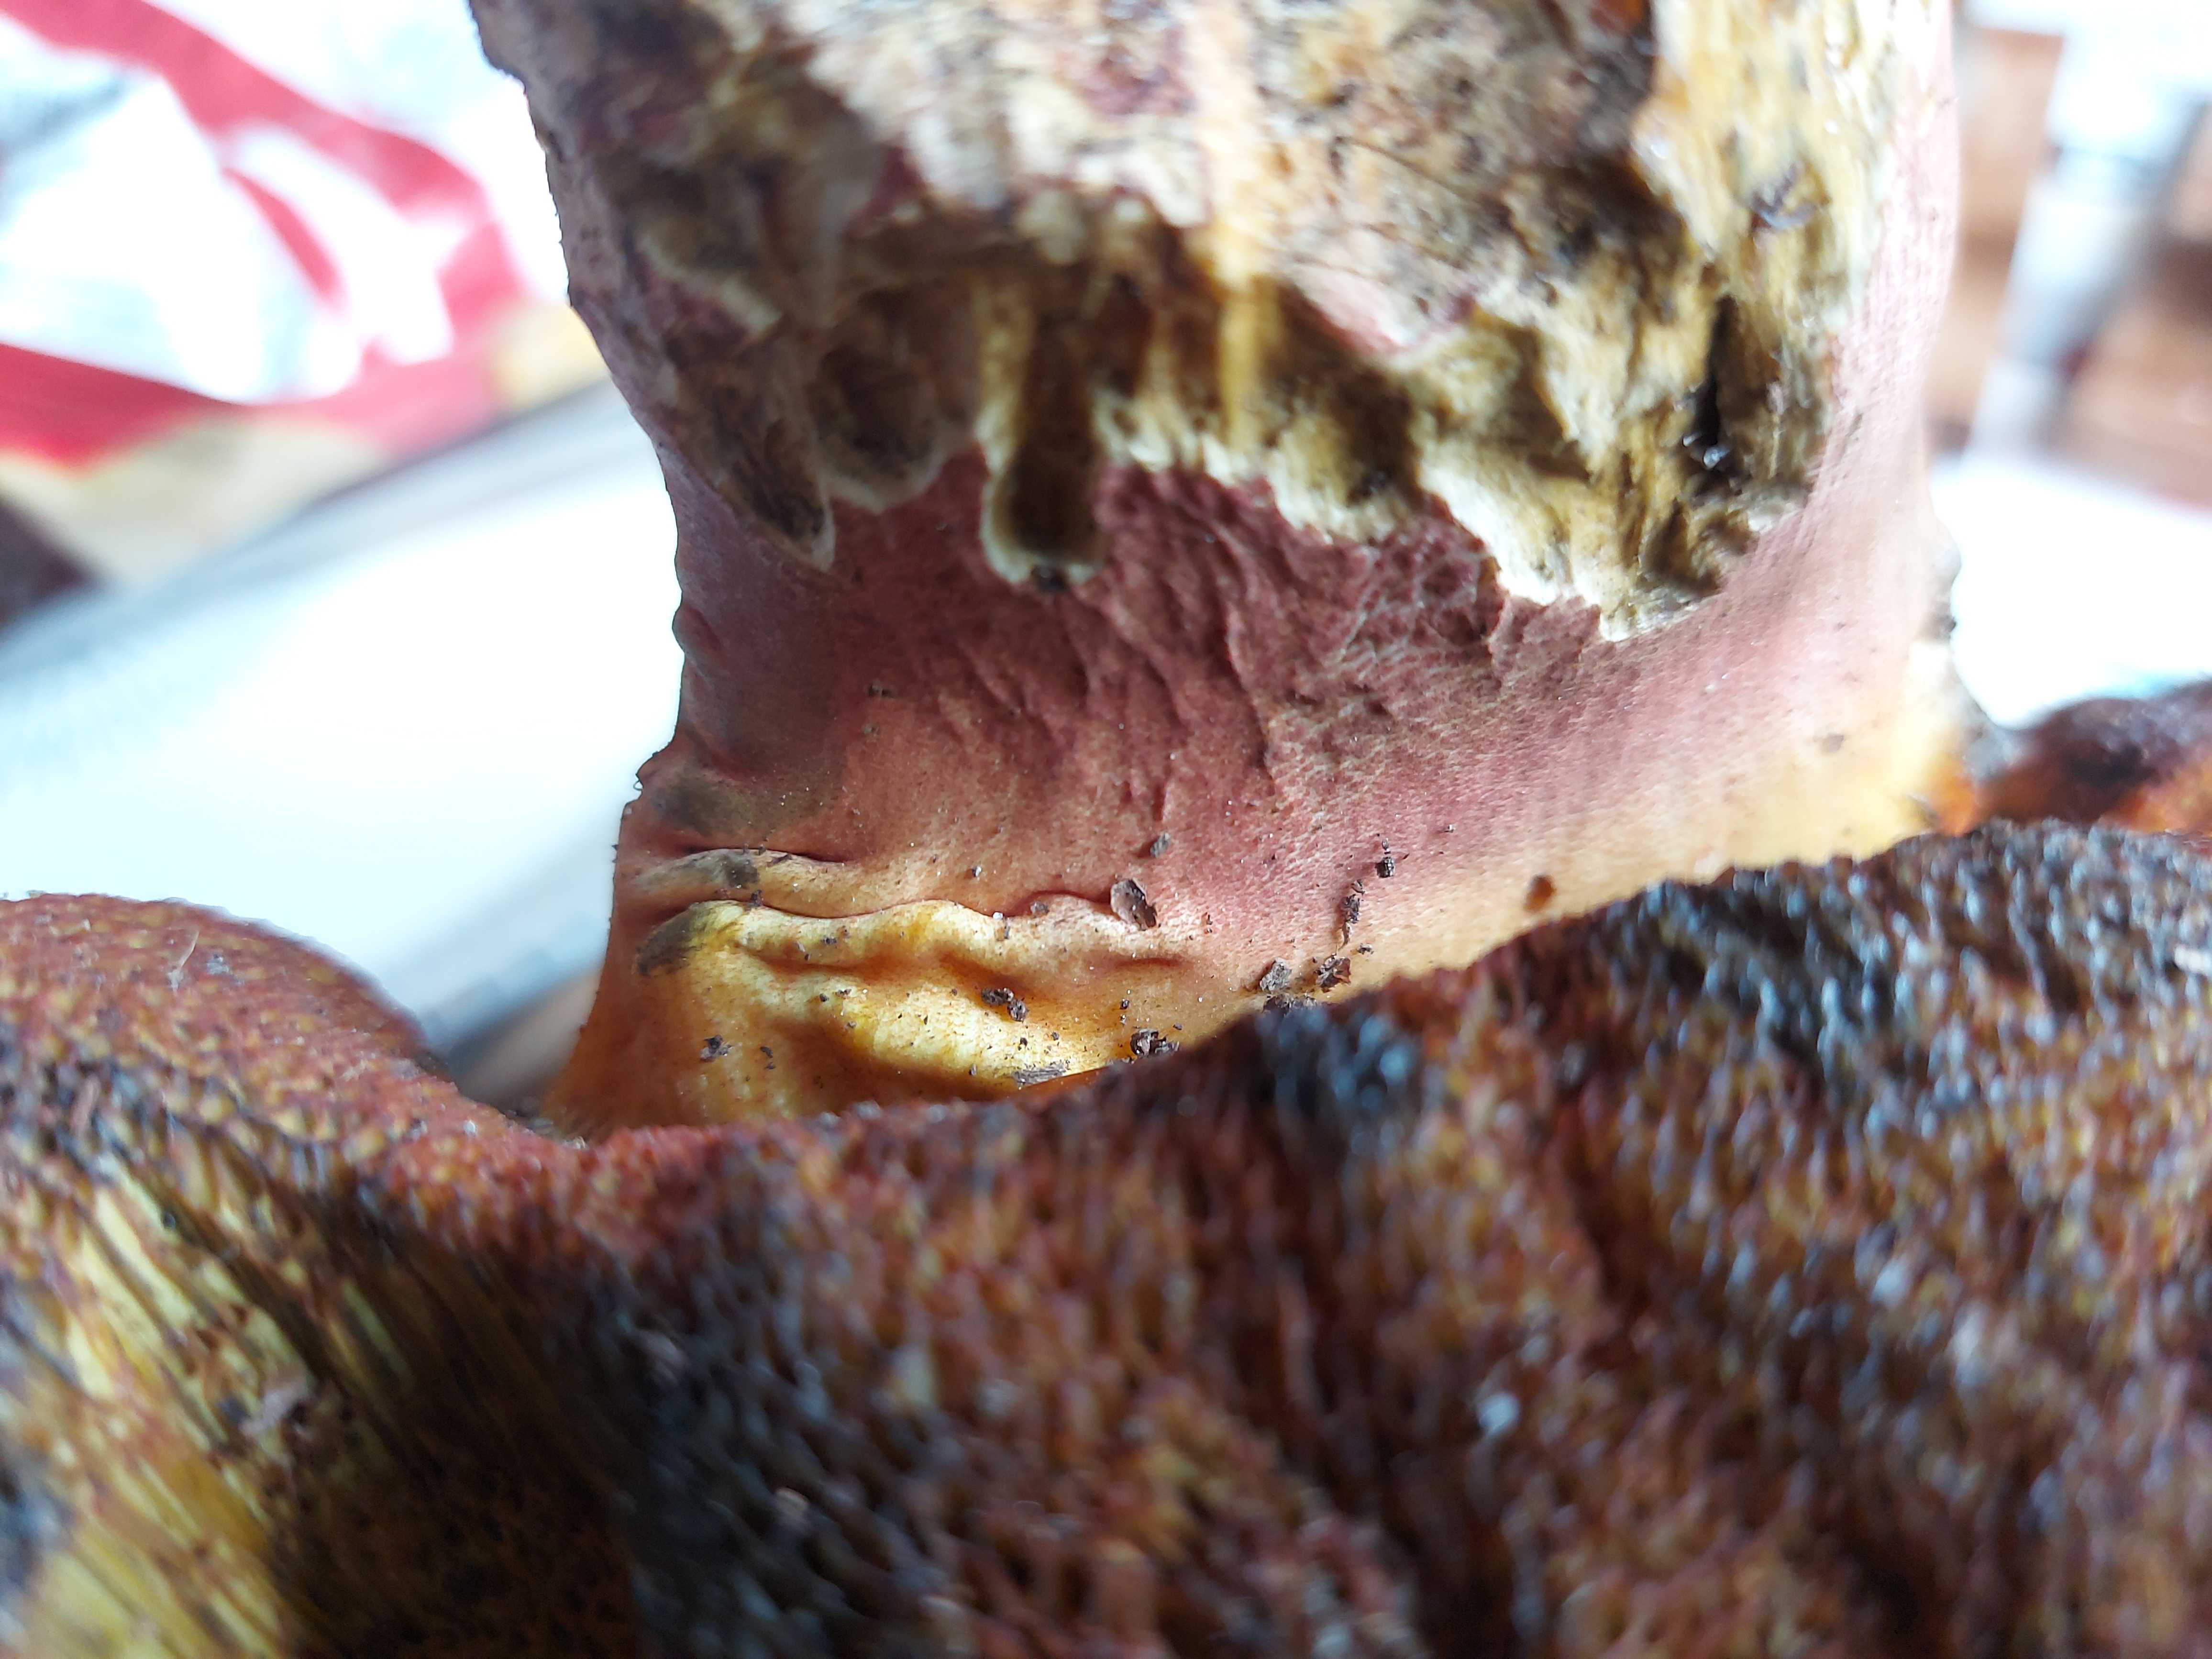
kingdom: Fungi
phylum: Basidiomycota
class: Agaricomycetes
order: Boletales
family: Boletaceae
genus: Neoboletus
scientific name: Neoboletus erythropus
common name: punktstokket indigorørhat
